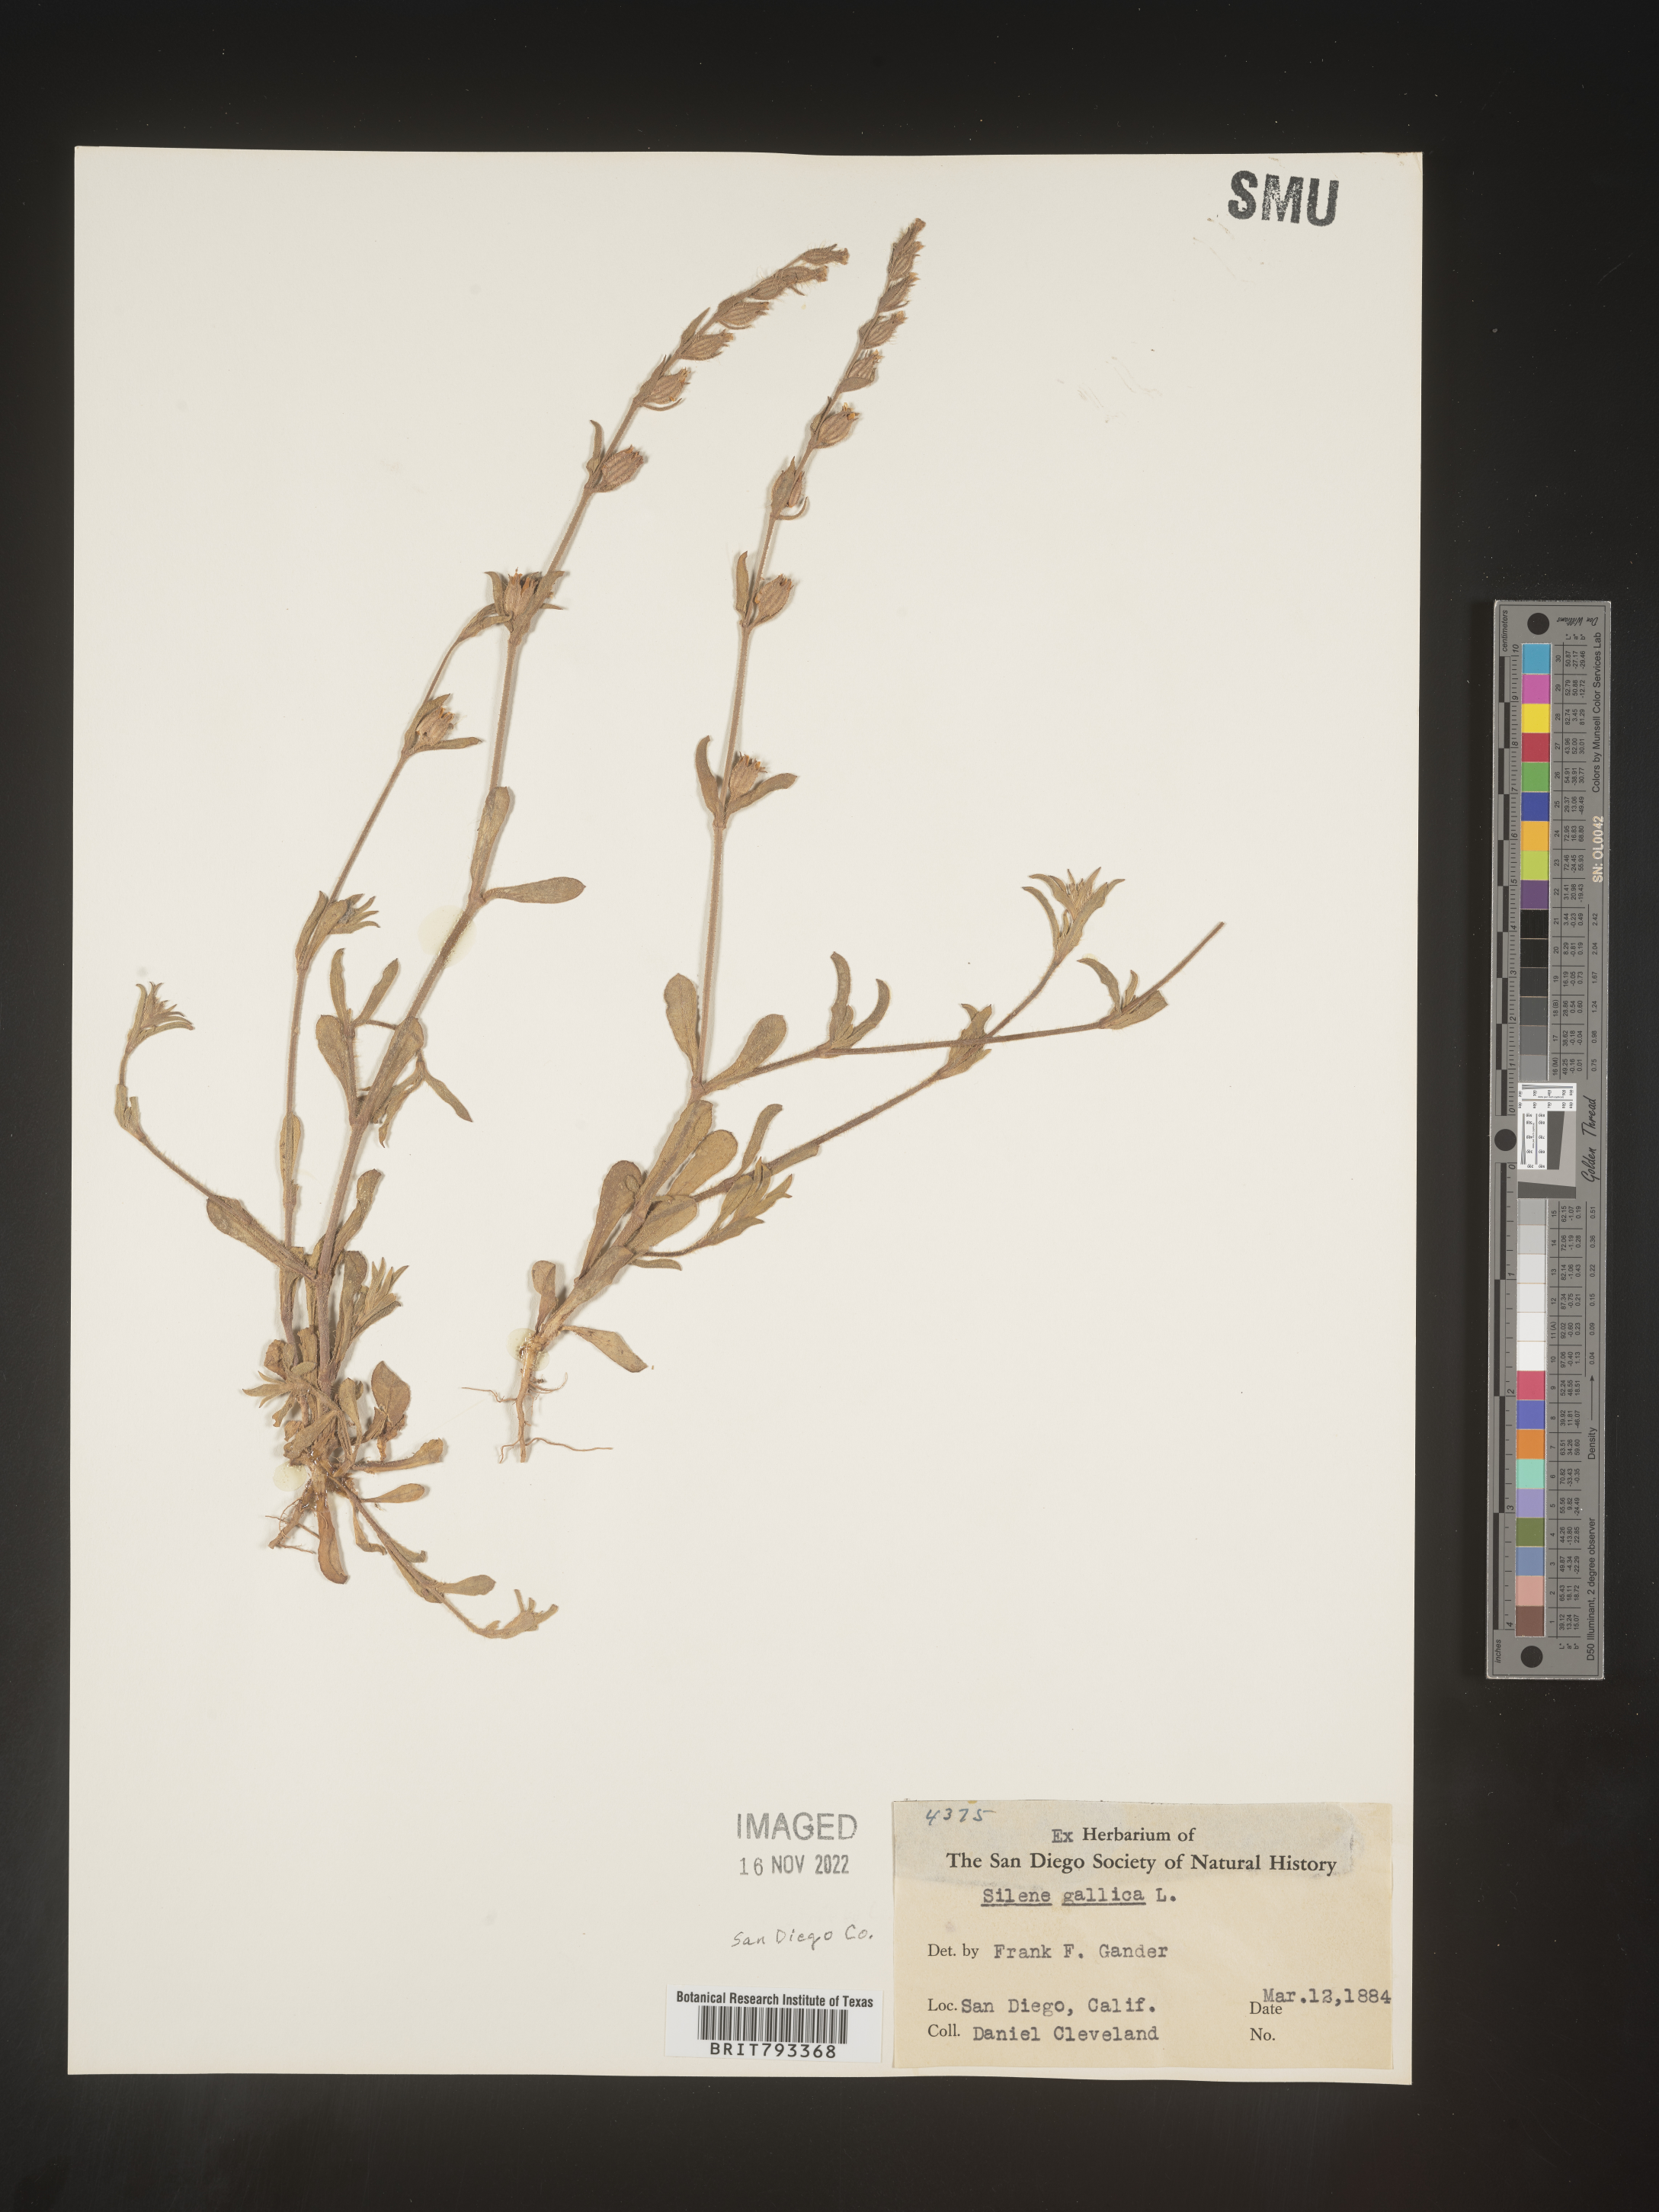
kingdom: Plantae
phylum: Tracheophyta
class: Magnoliopsida
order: Caryophyllales
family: Caryophyllaceae
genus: Silene
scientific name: Silene gallica
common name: Small-flowered catchfly
